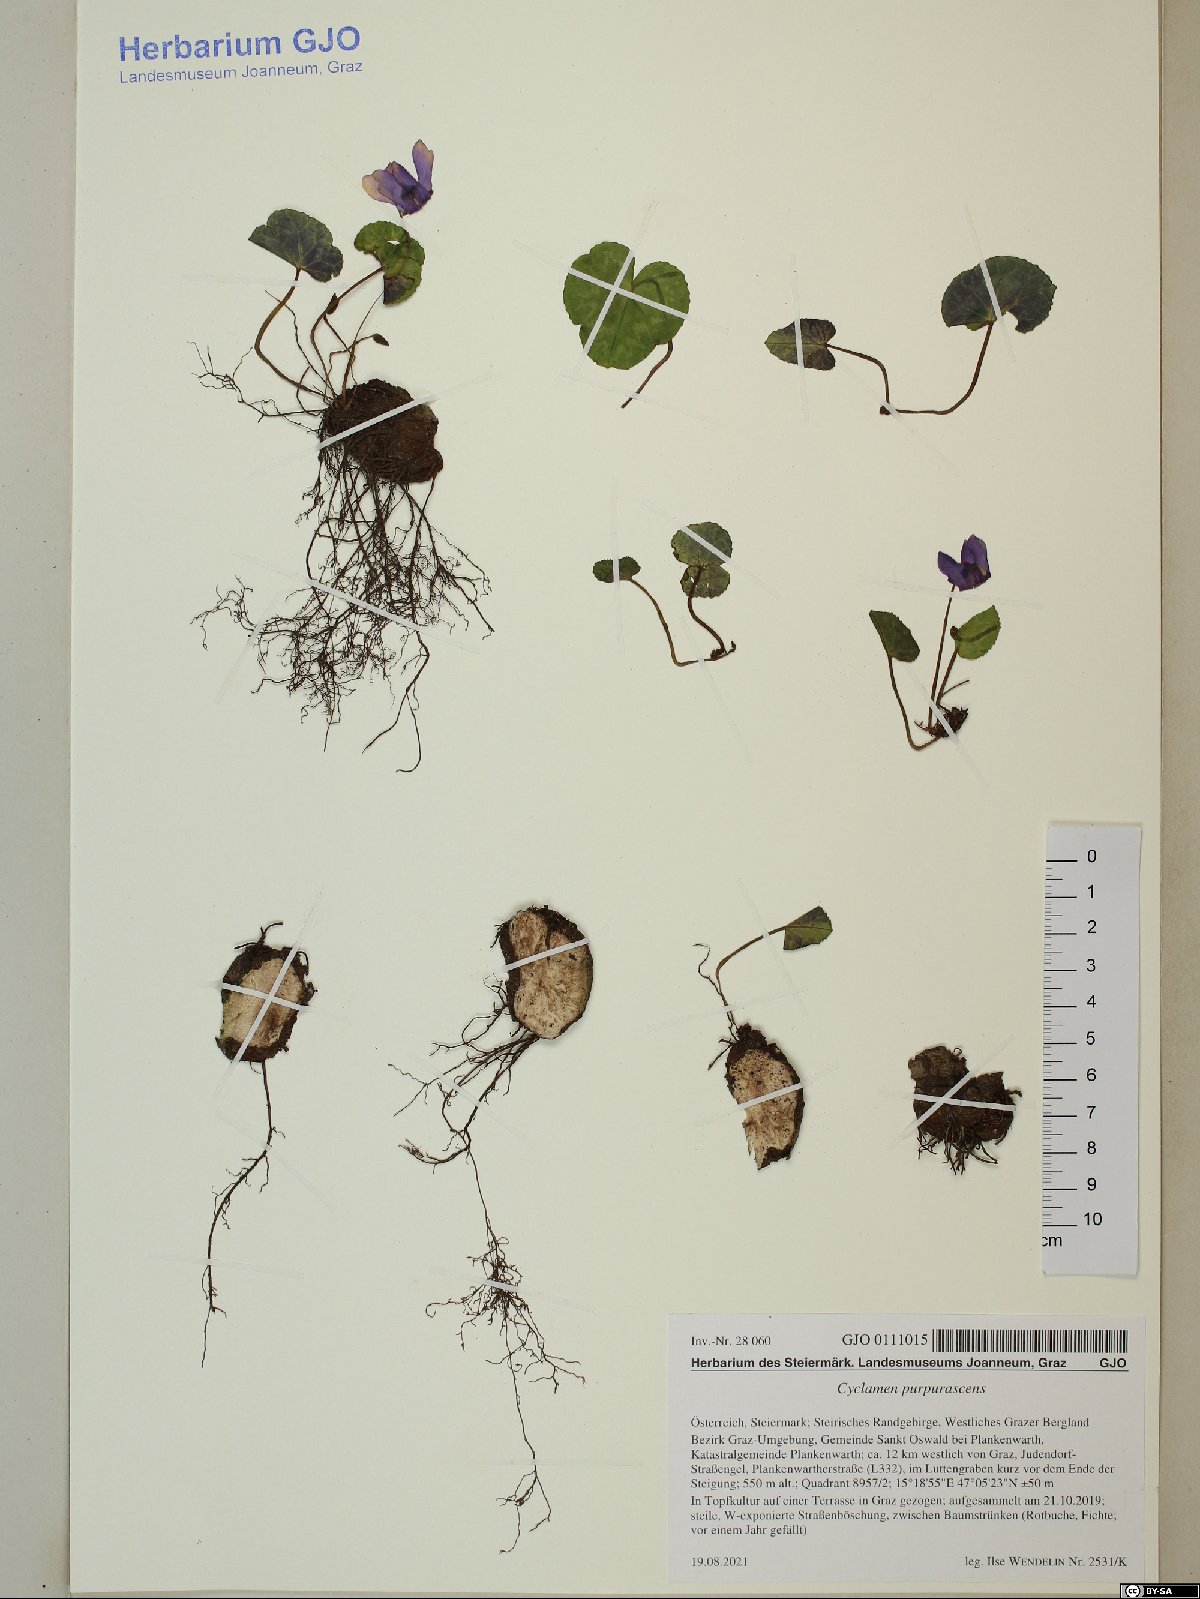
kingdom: Plantae
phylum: Tracheophyta
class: Magnoliopsida
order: Ericales
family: Primulaceae
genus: Cyclamen
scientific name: Cyclamen purpurascens
